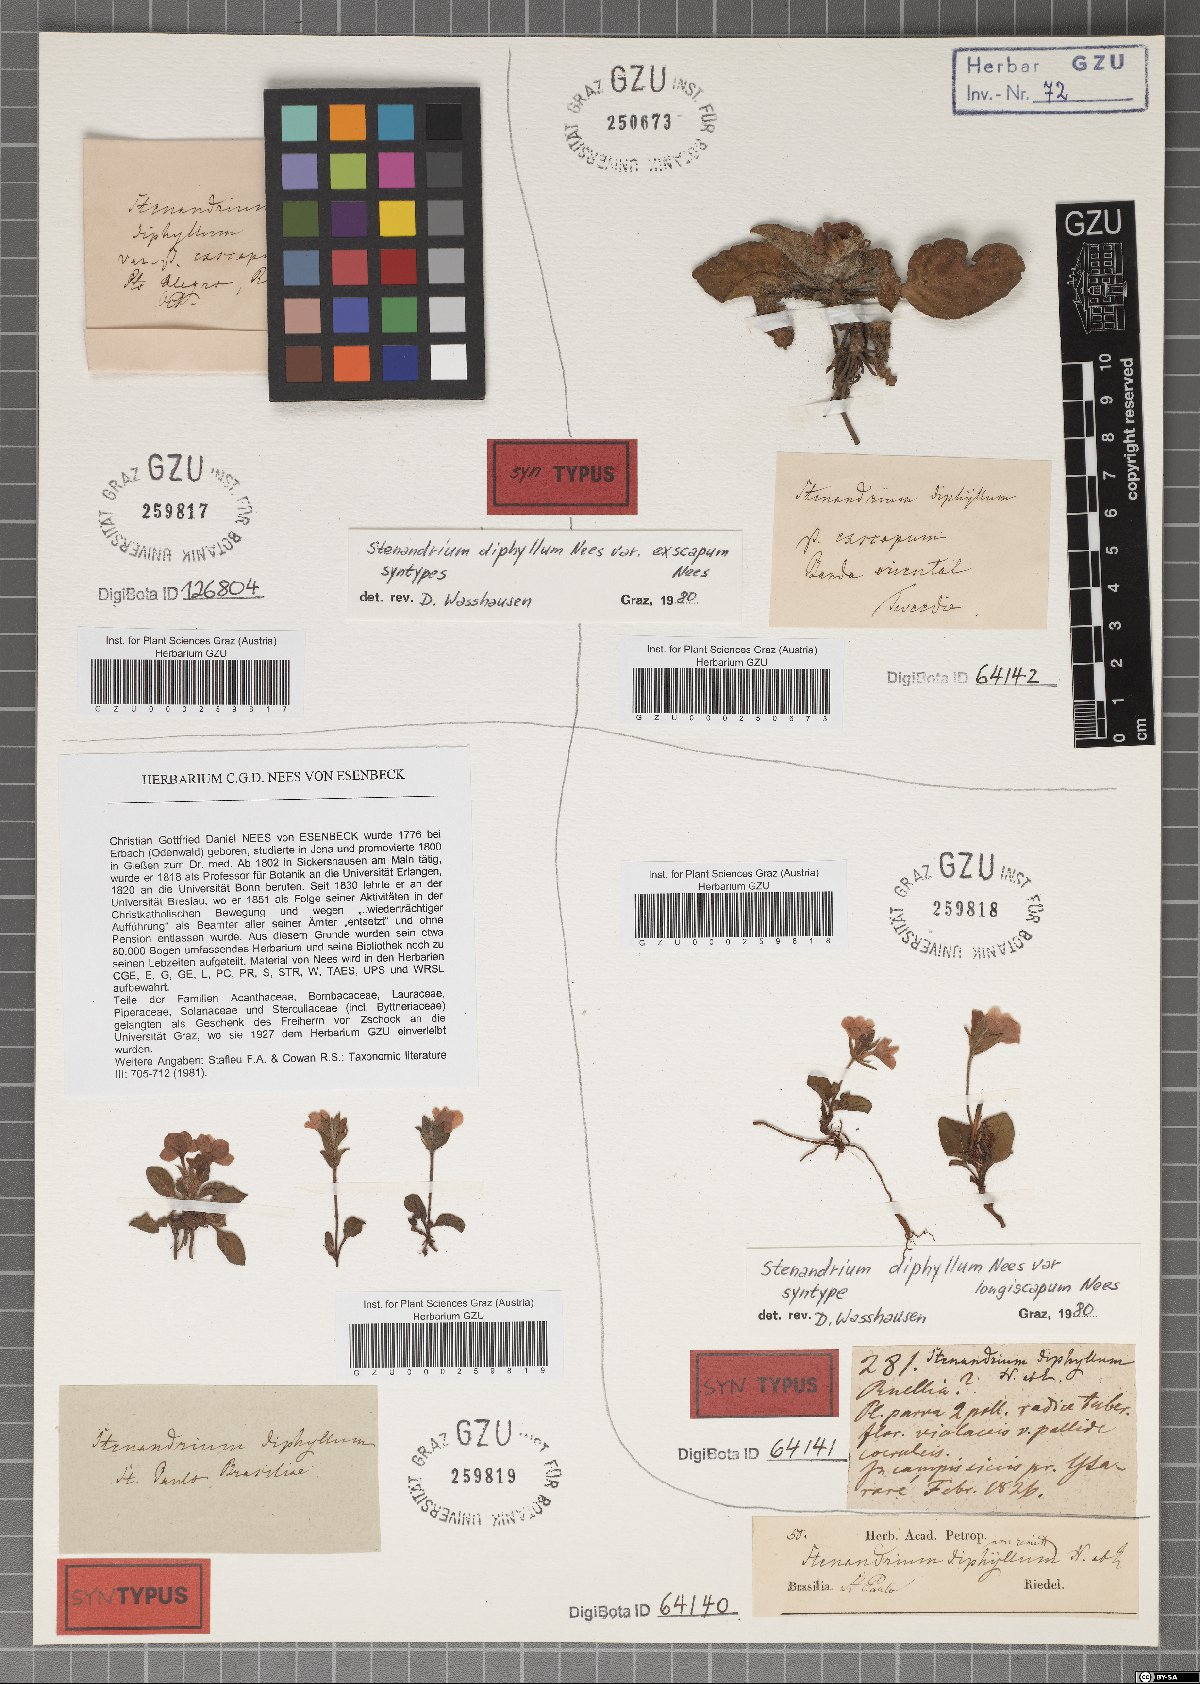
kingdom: Plantae
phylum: Tracheophyta
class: Magnoliopsida
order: Lamiales
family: Acanthaceae
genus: Stenandrium
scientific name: Stenandrium diphyllum
